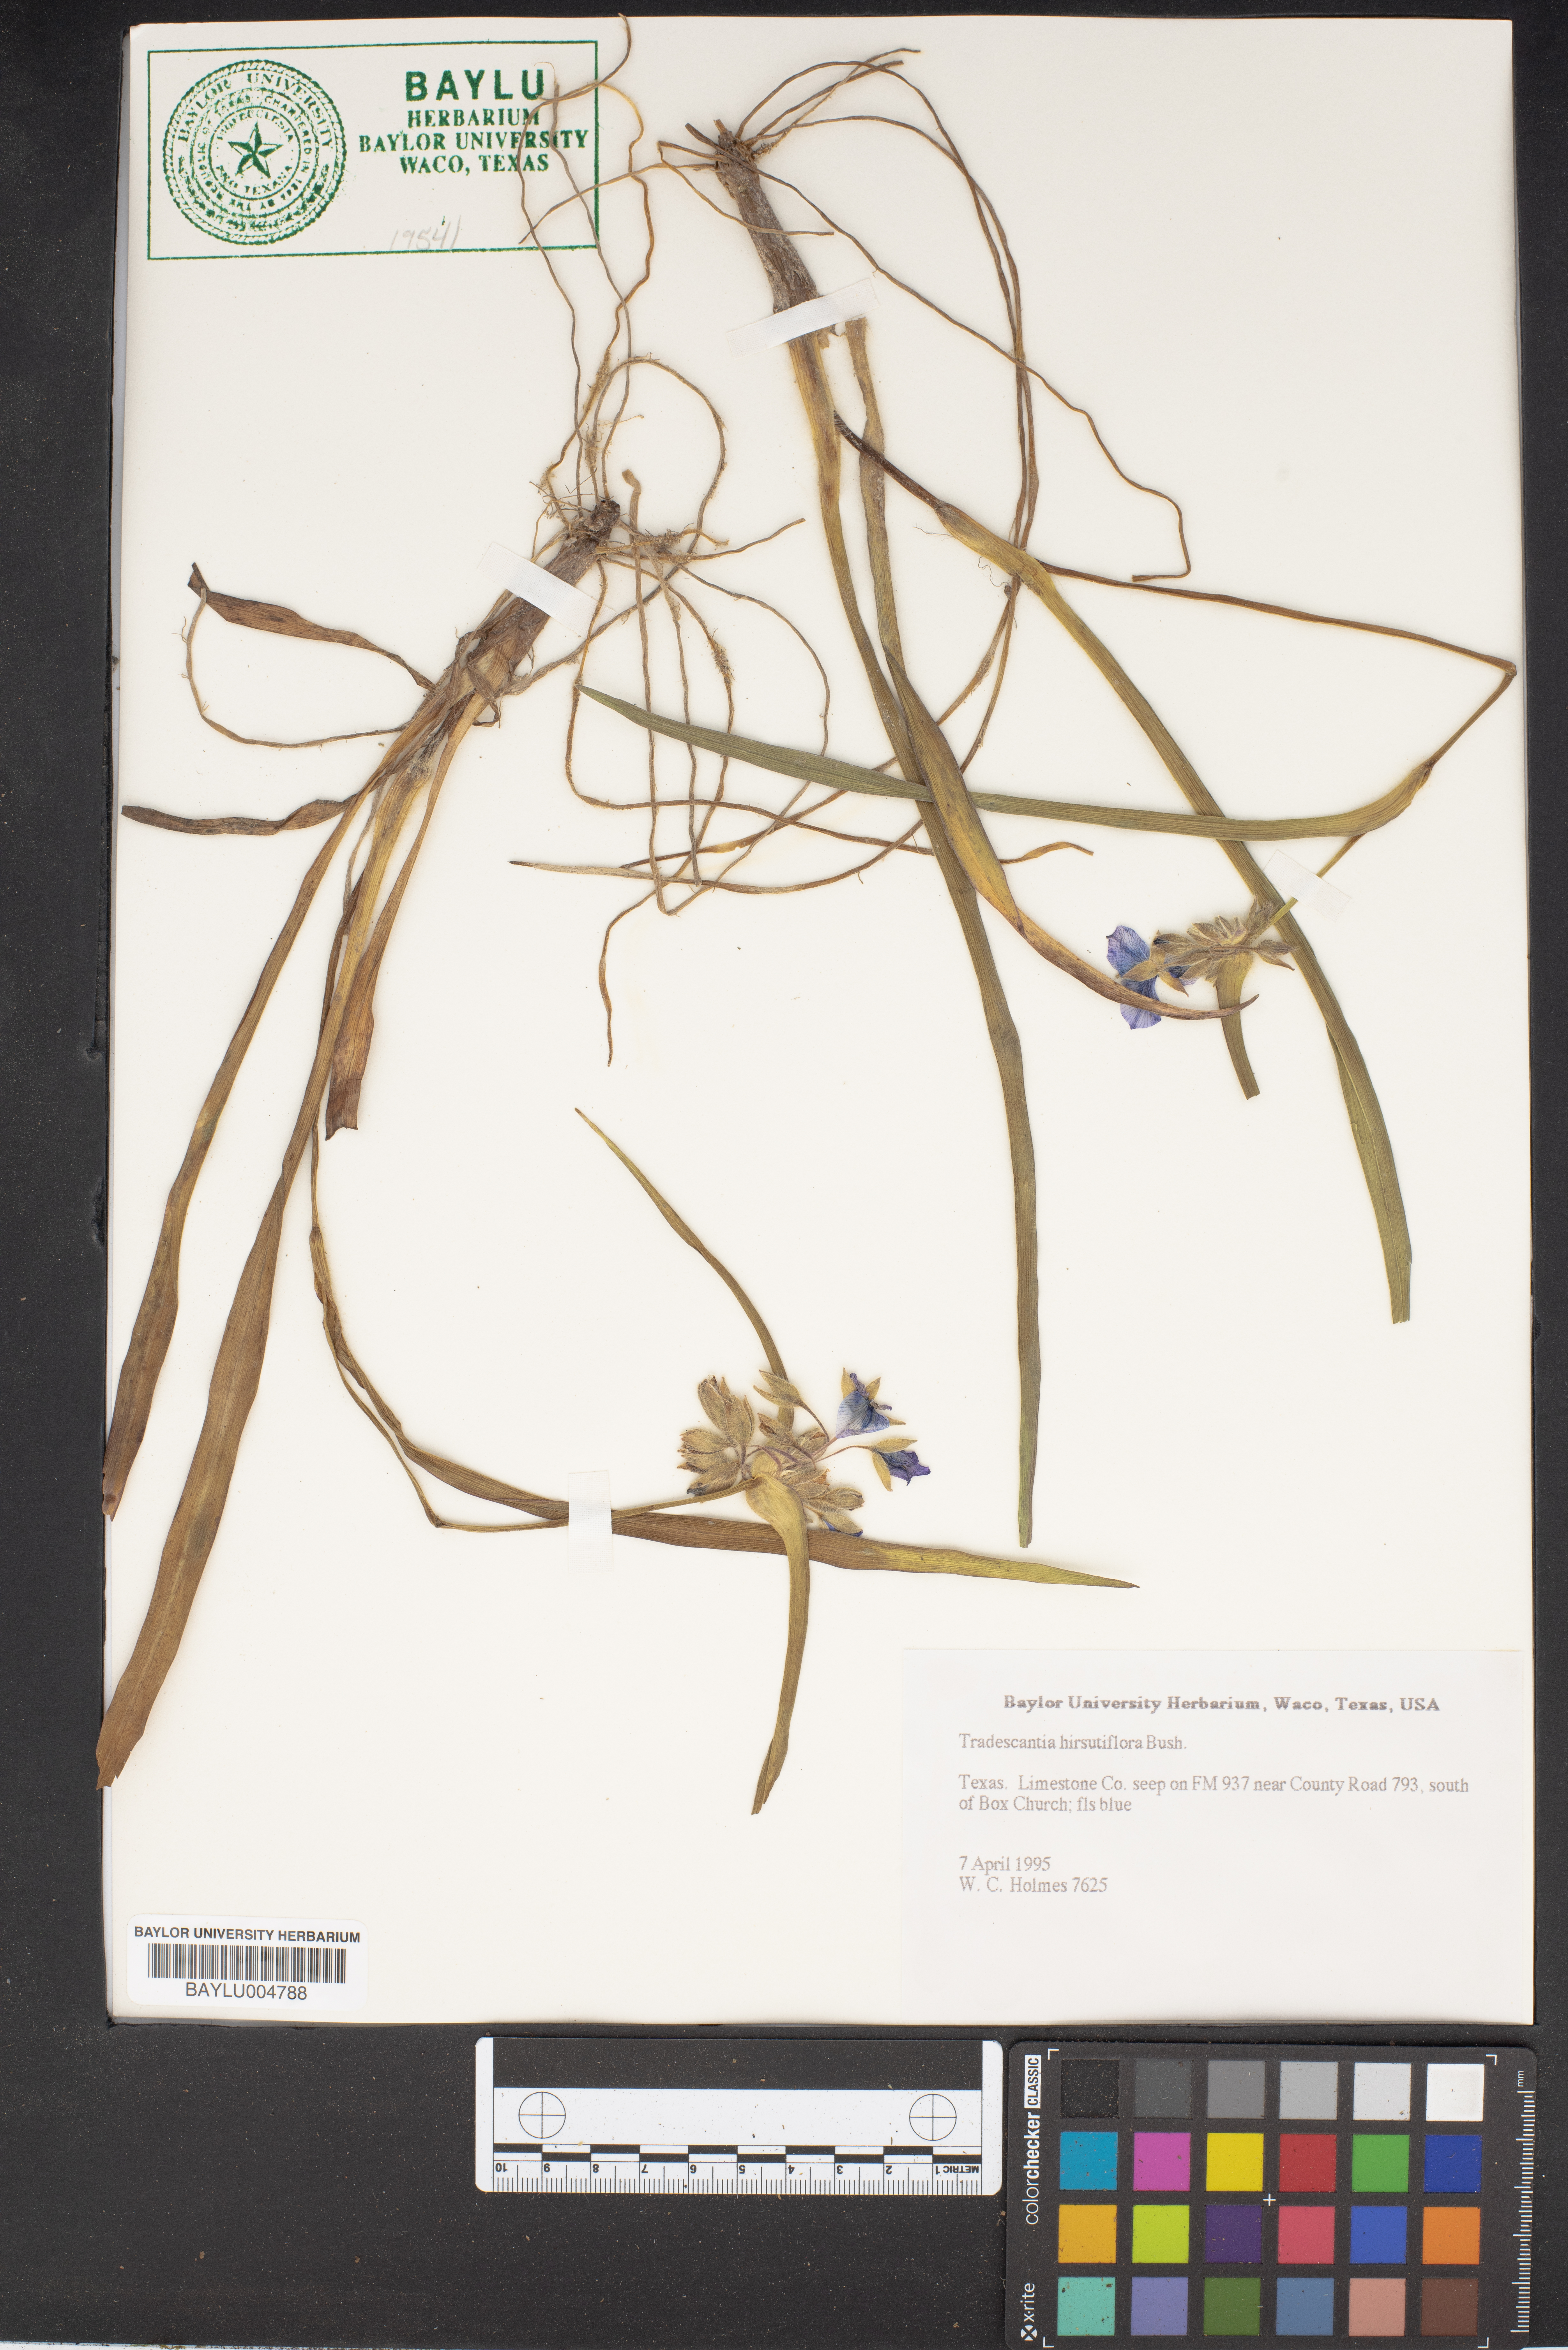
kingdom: Plantae
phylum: Tracheophyta
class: Liliopsida
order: Commelinales
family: Commelinaceae
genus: Tradescantia
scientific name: Tradescantia hirsutiflora
